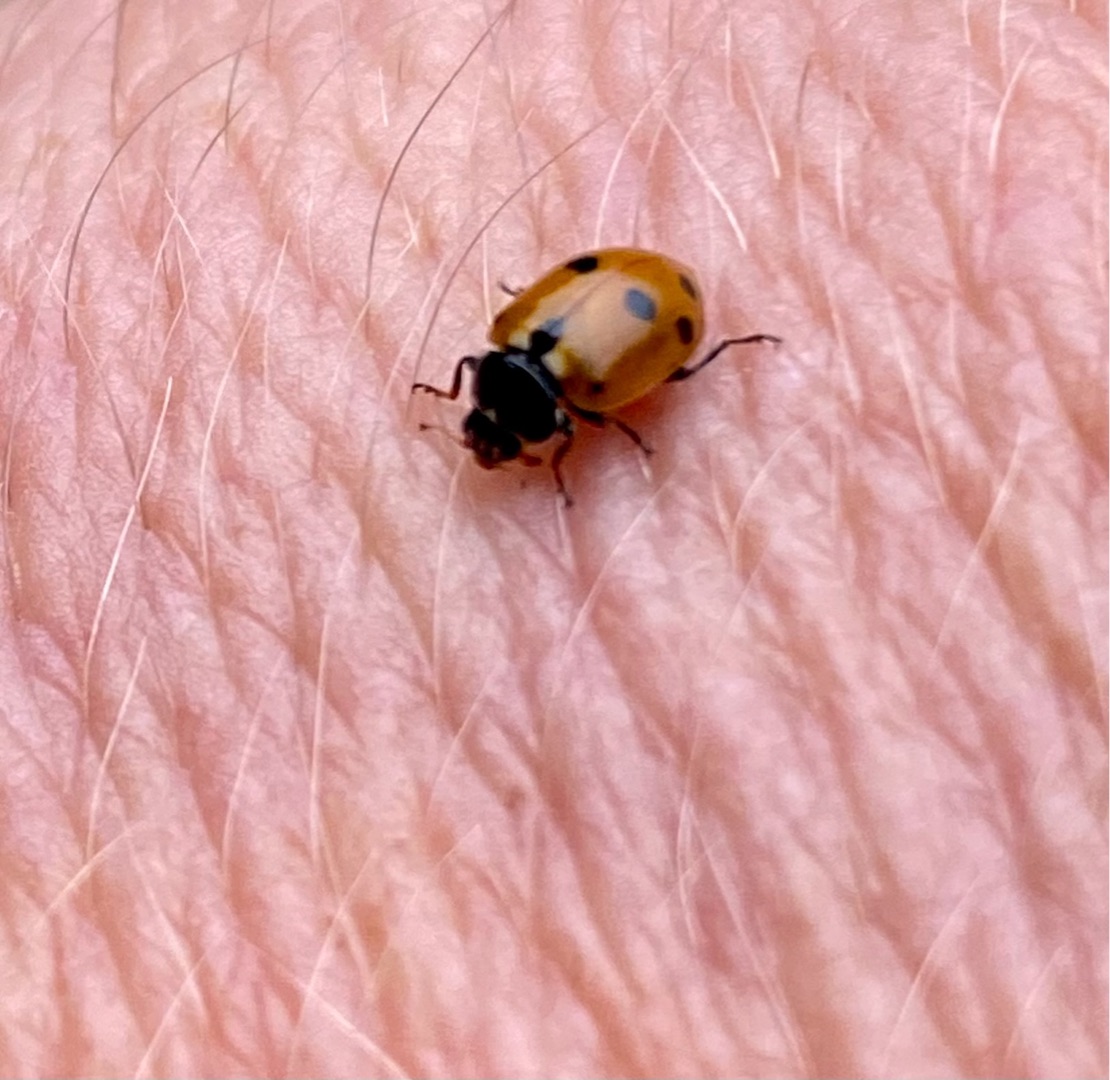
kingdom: Animalia
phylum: Arthropoda
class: Insecta
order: Coleoptera
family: Coccinellidae
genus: Hippodamia
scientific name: Hippodamia variegata
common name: Adonis' mariehøne
